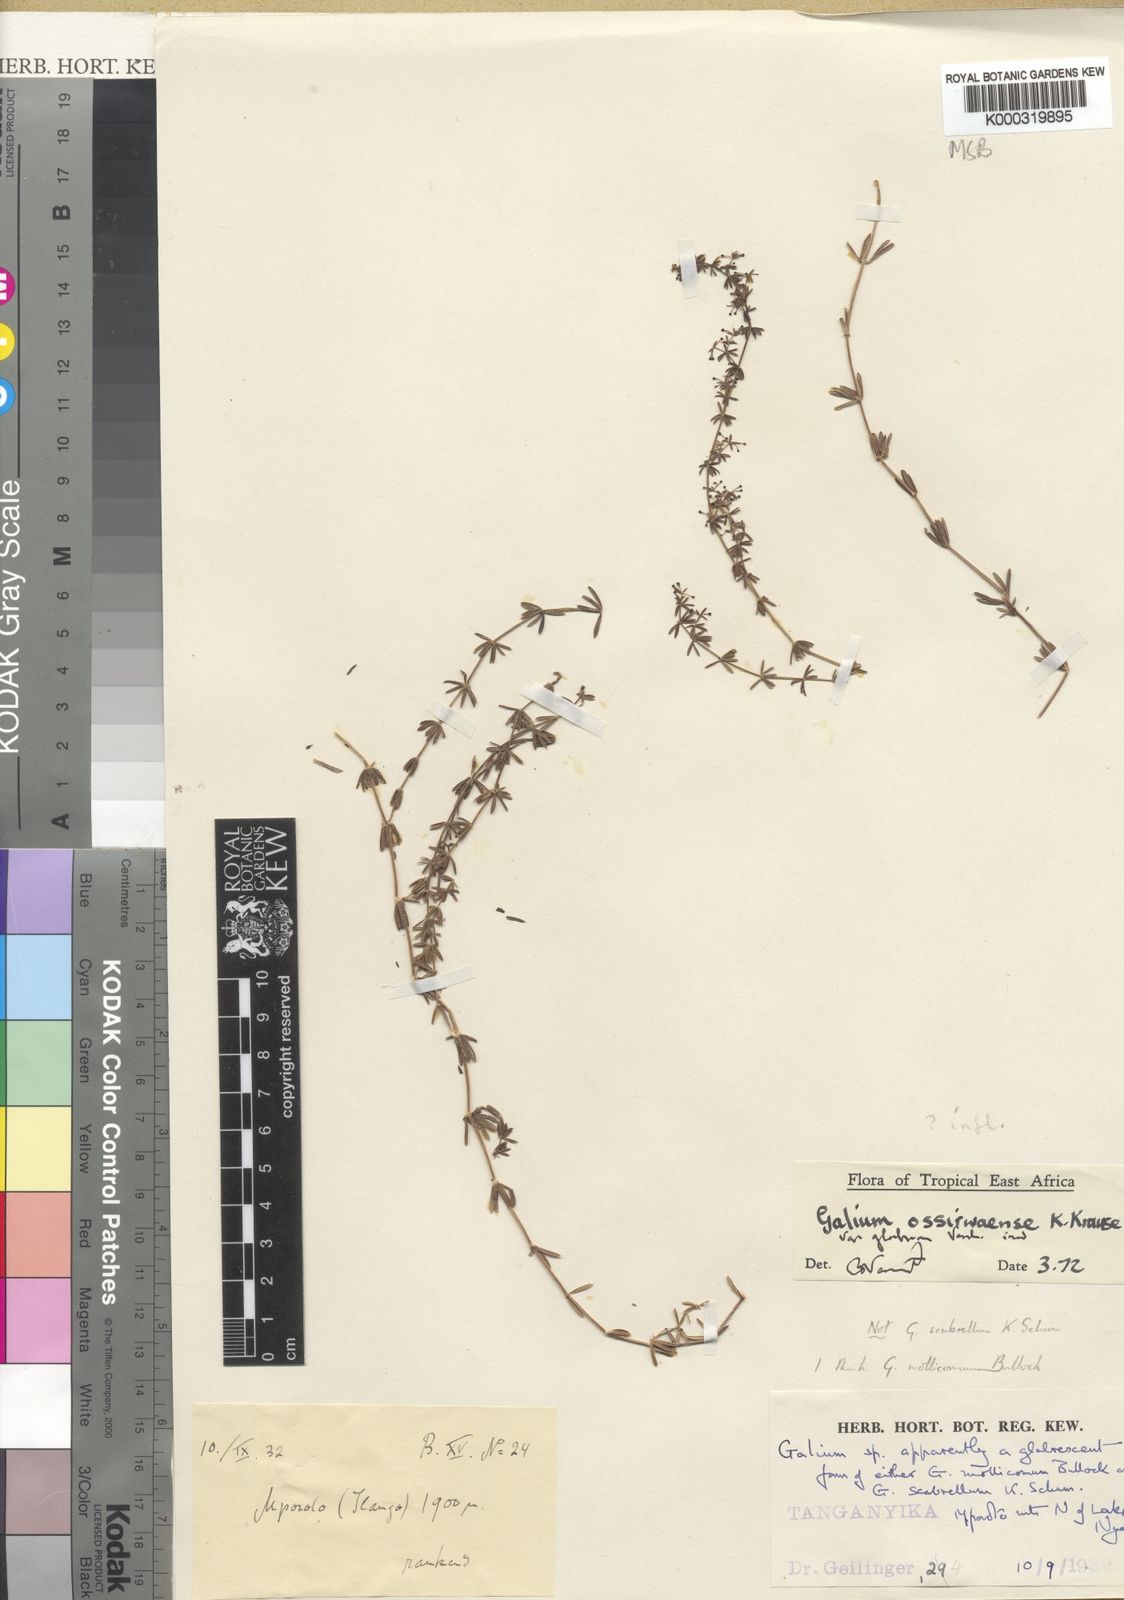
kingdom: Plantae
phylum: Tracheophyta
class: Magnoliopsida
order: Gentianales
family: Rubiaceae
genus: Galium
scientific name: Galium ossirwaense
